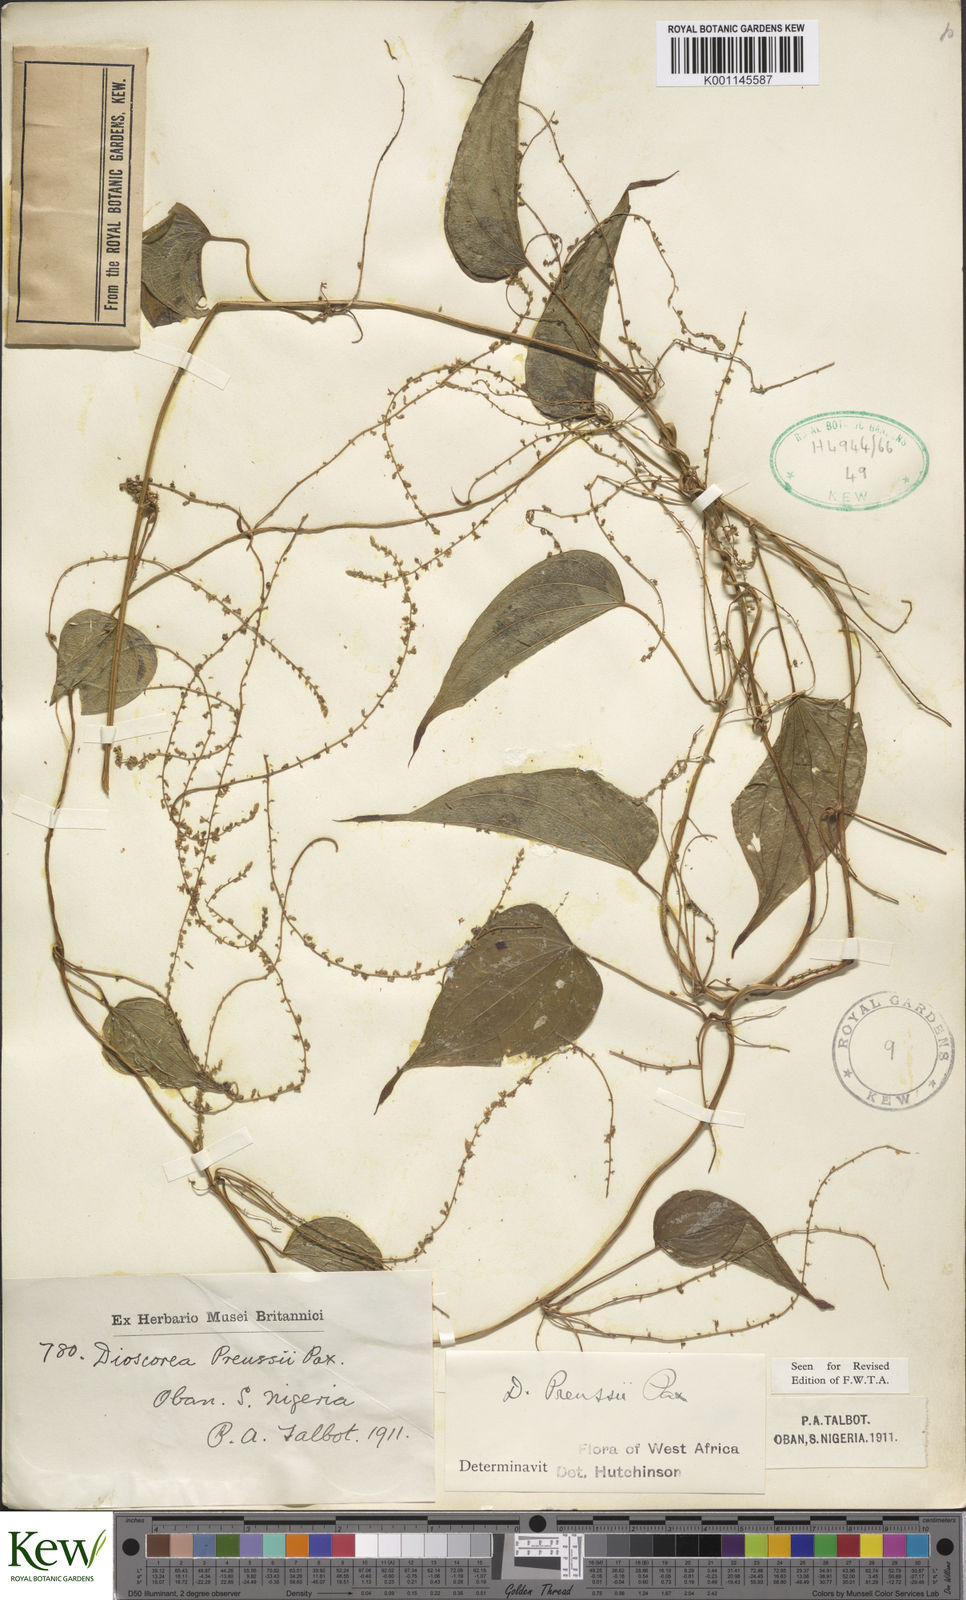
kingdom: Plantae
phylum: Tracheophyta
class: Liliopsida
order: Dioscoreales
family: Dioscoreaceae
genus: Dioscorea
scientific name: Dioscorea preussii
